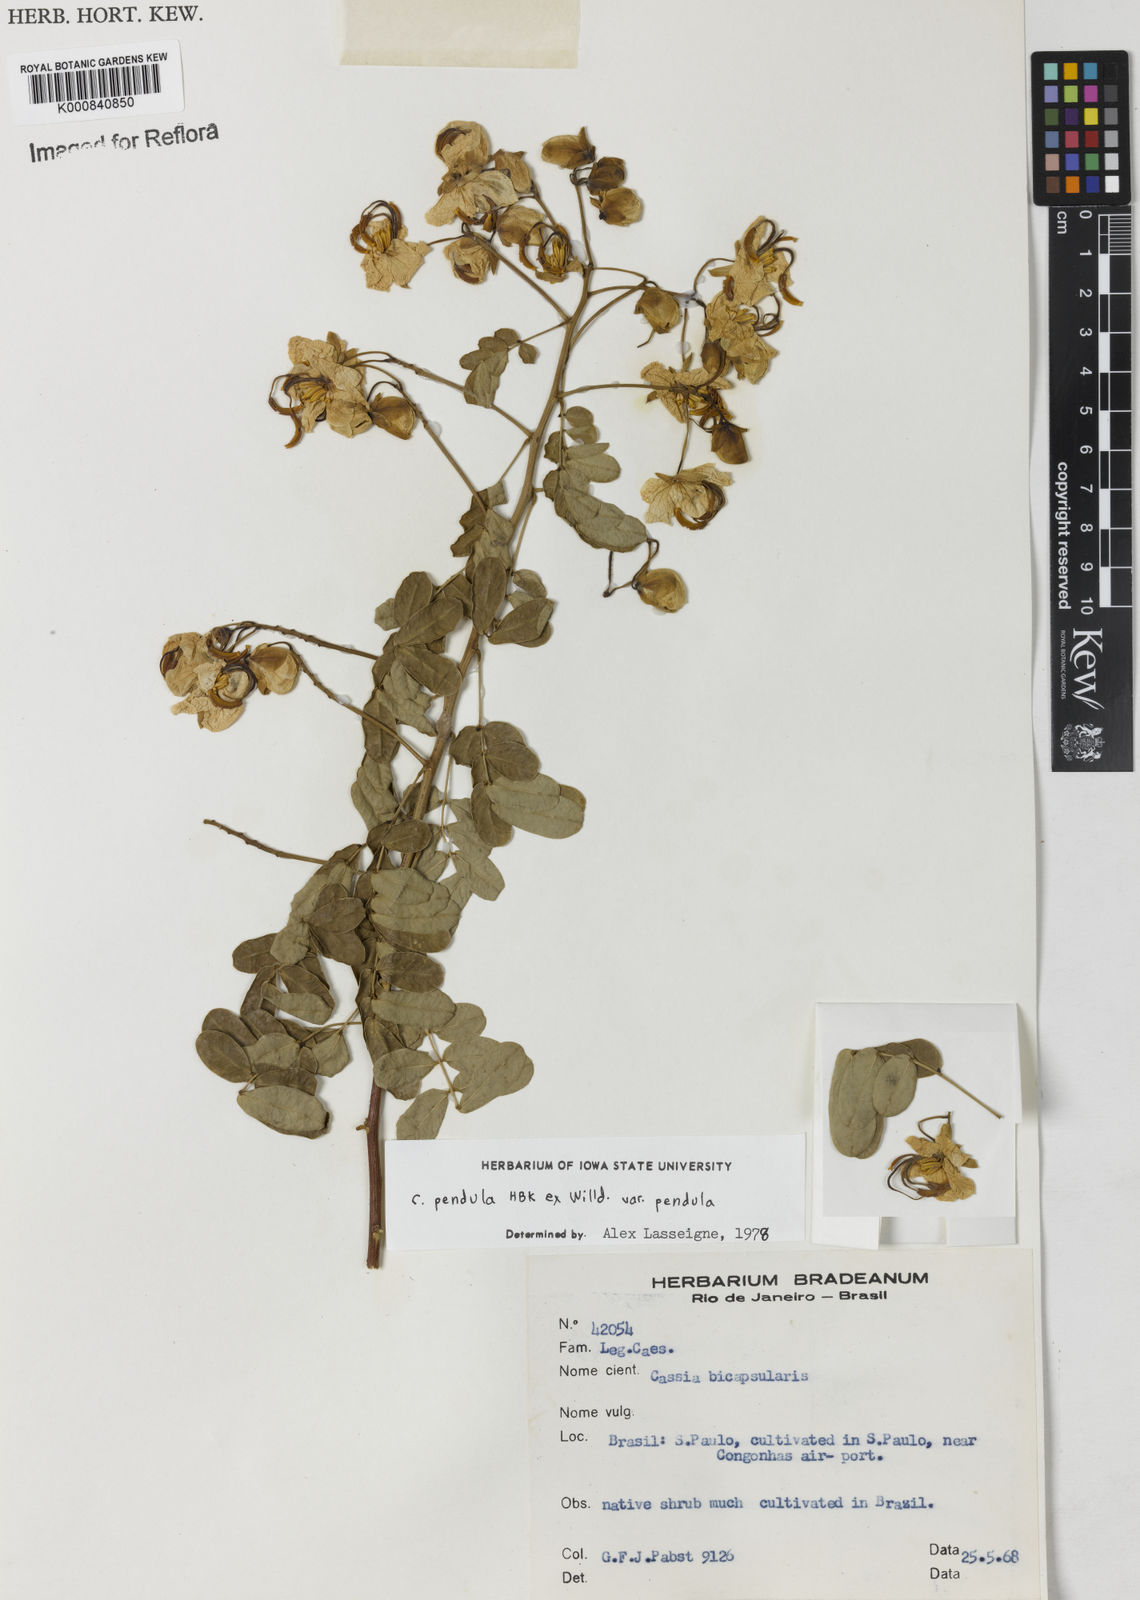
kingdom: Plantae
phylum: Tracheophyta
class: Magnoliopsida
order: Fabales
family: Fabaceae
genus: Senna
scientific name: Senna pendula
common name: Easter cassia
